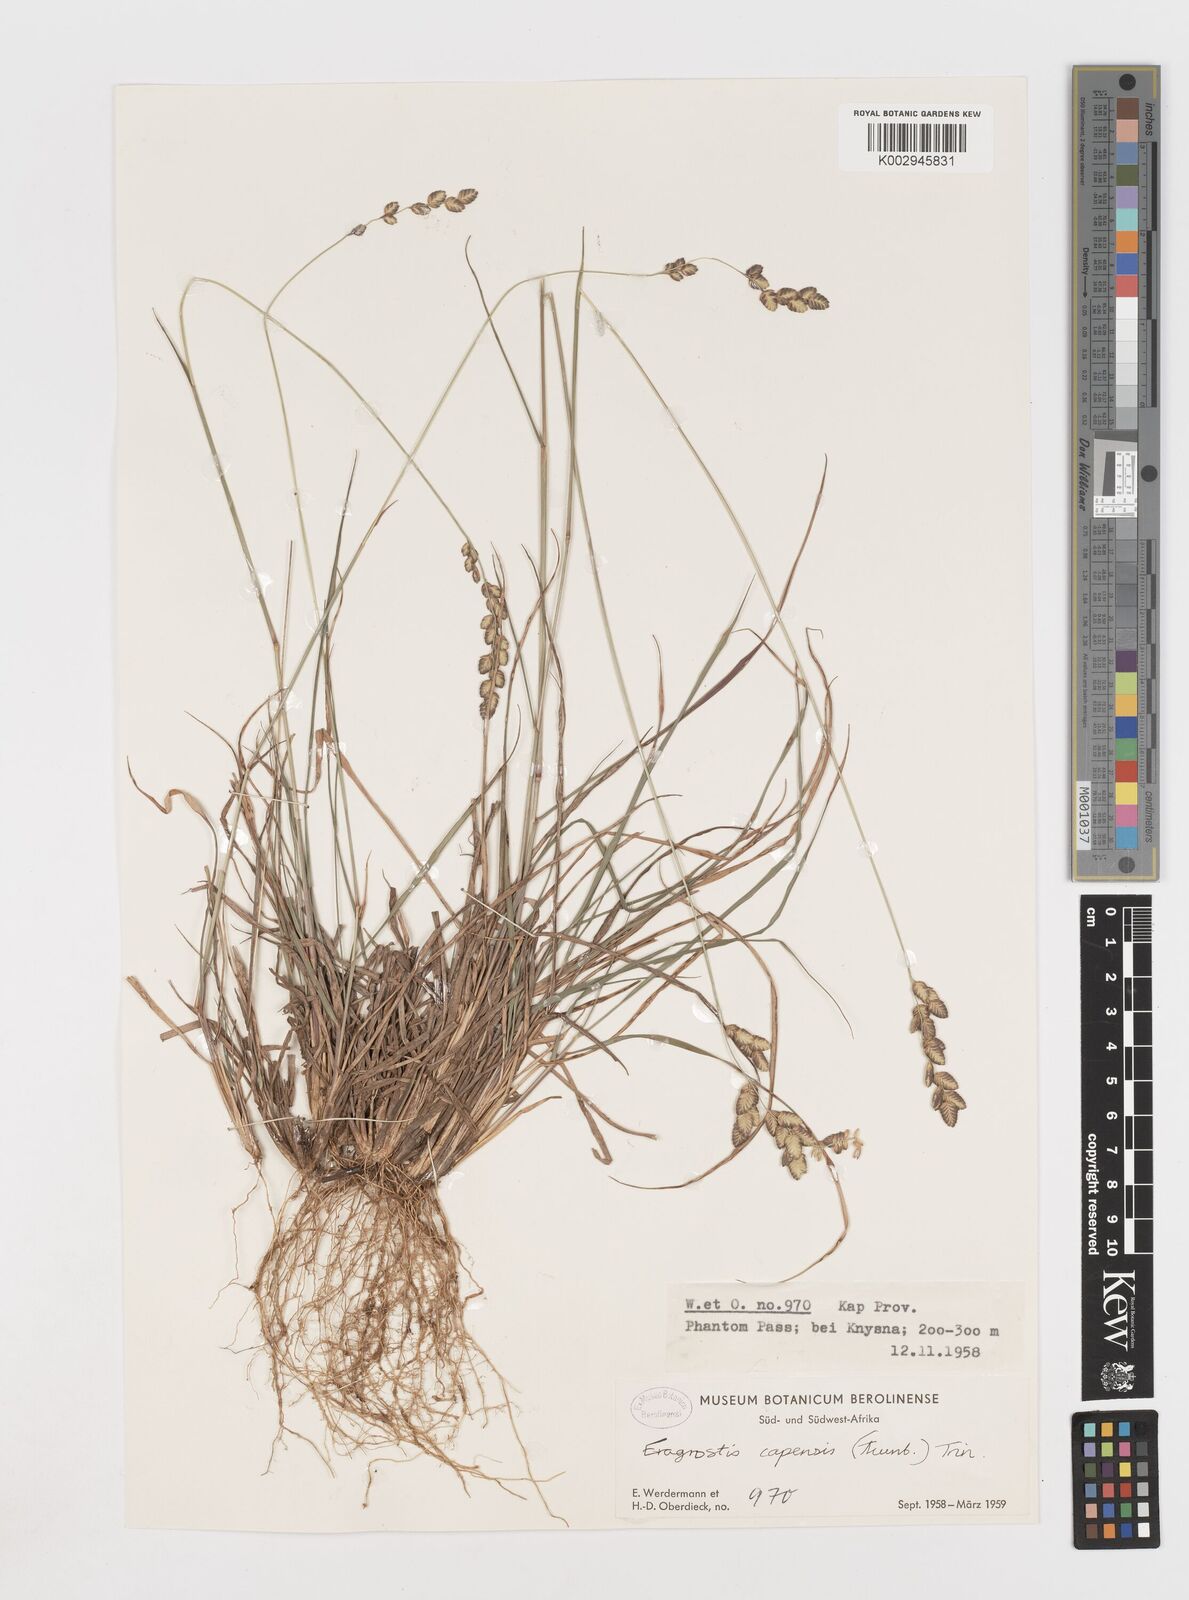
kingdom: Plantae
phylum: Tracheophyta
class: Liliopsida
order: Poales
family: Poaceae
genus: Eragrostis
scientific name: Eragrostis capensis
